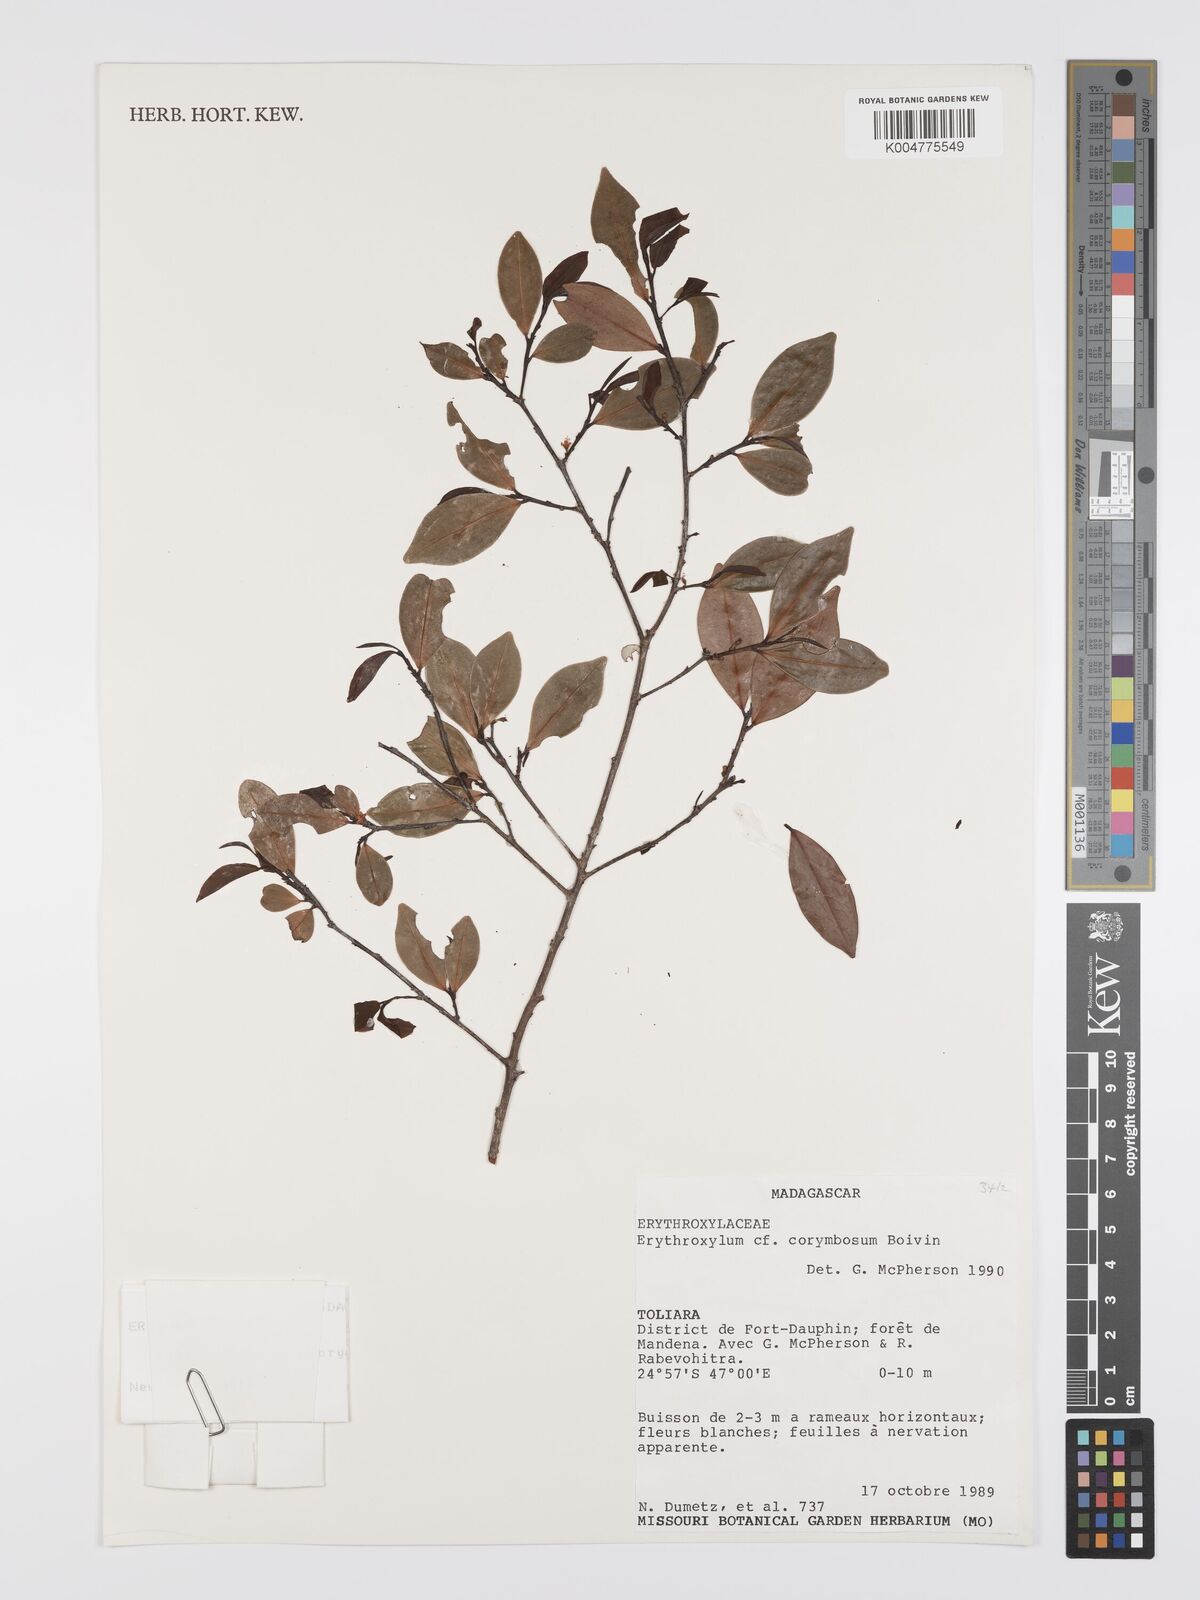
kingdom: Plantae
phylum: Tracheophyta
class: Magnoliopsida
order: Malpighiales
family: Erythroxylaceae
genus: Erythroxylum
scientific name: Erythroxylum corymbosum
